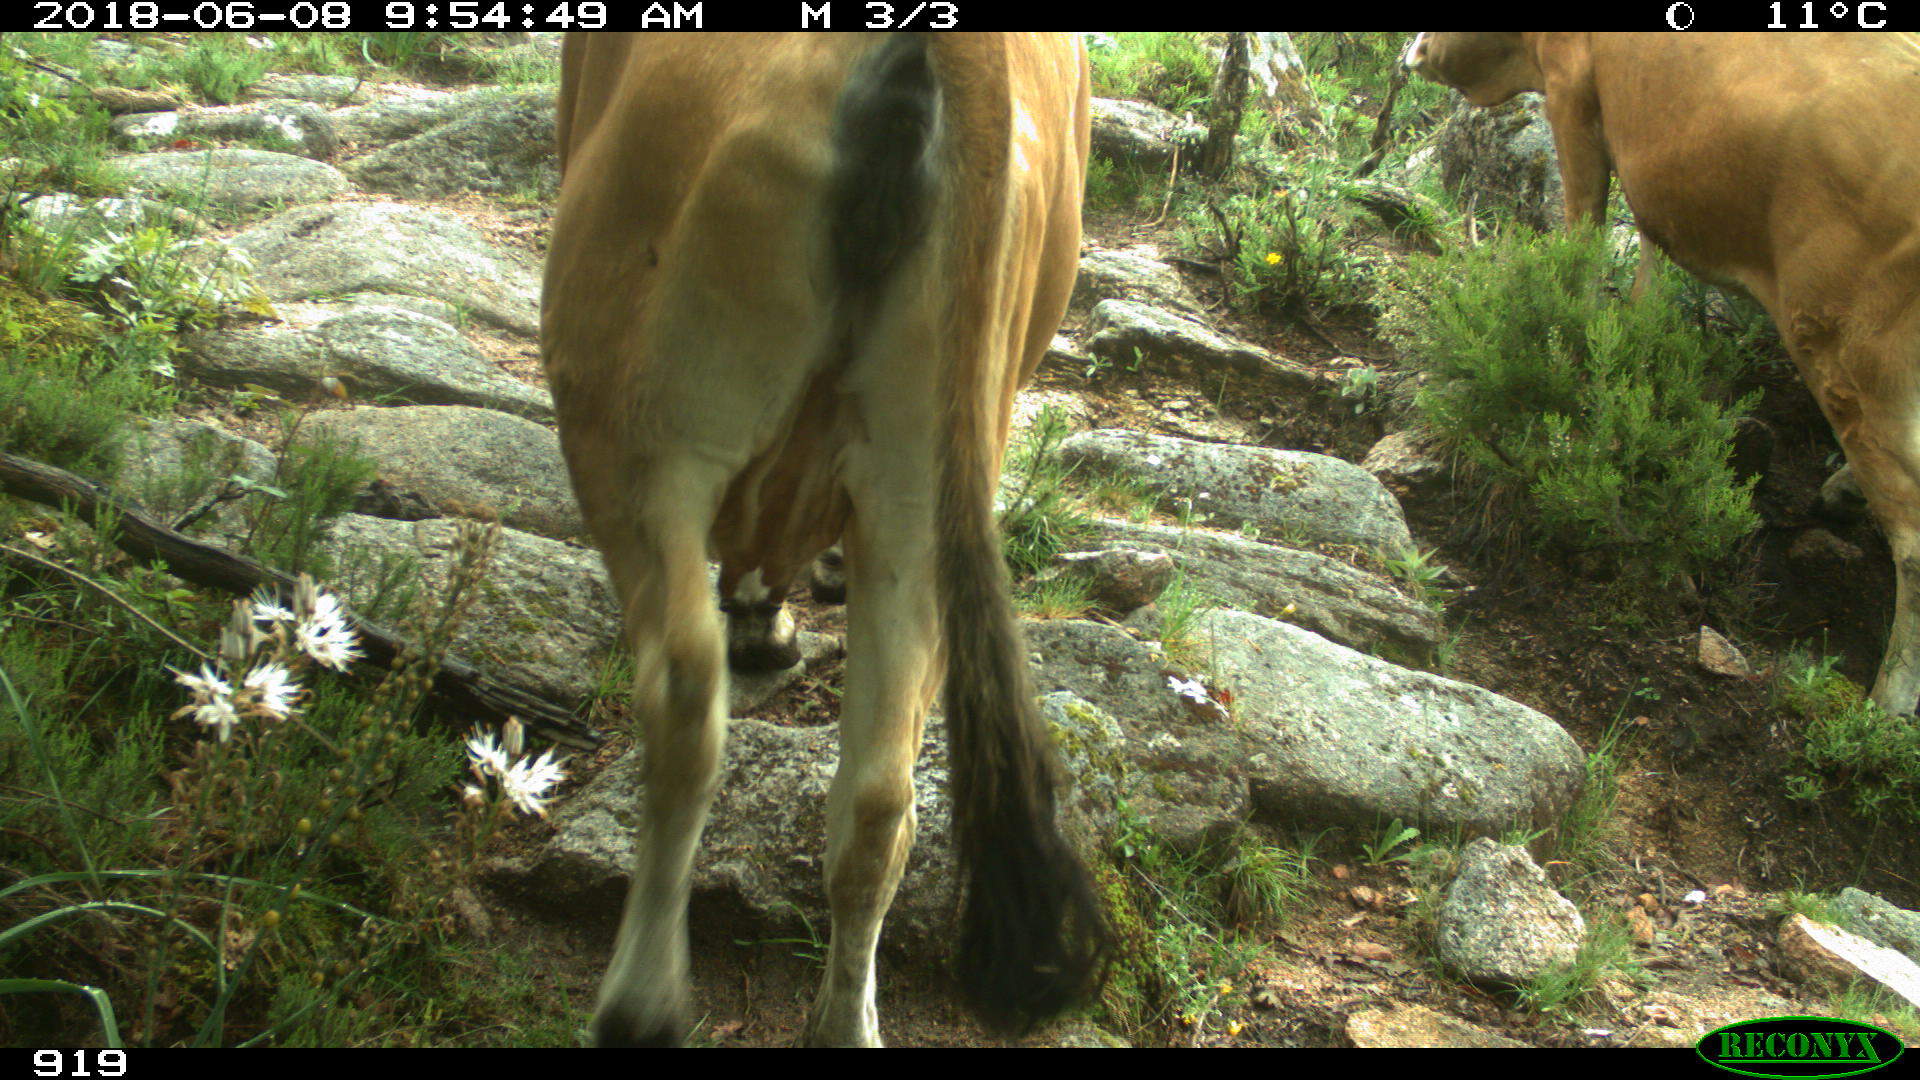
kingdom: Animalia
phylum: Chordata
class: Mammalia
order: Artiodactyla
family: Bovidae
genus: Bos
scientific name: Bos taurus
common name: Domesticated cattle
